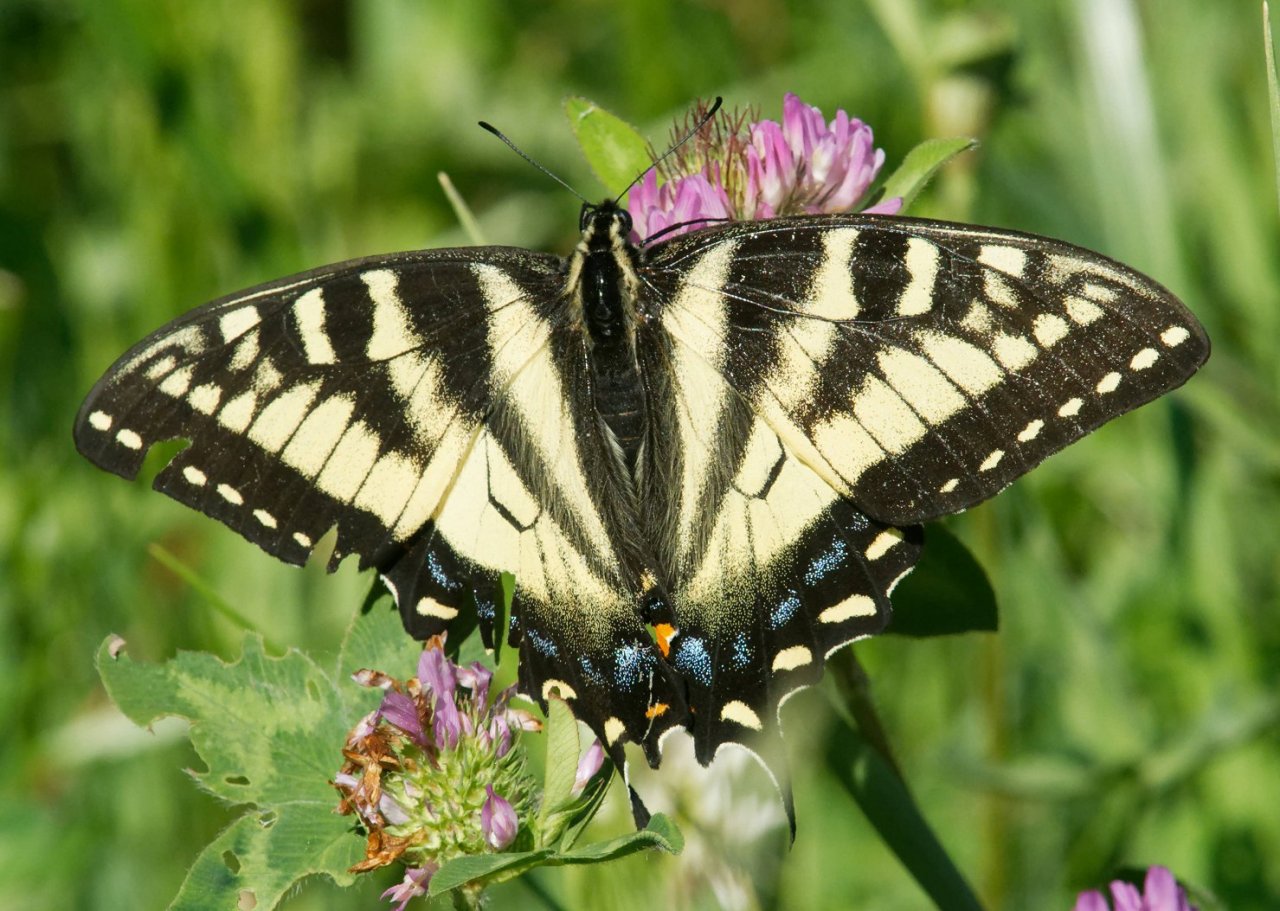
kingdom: Animalia
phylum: Arthropoda
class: Insecta
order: Lepidoptera
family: Papilionidae
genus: Pterourus
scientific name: Pterourus canadensis
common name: Canadian Tiger Swallowtail
